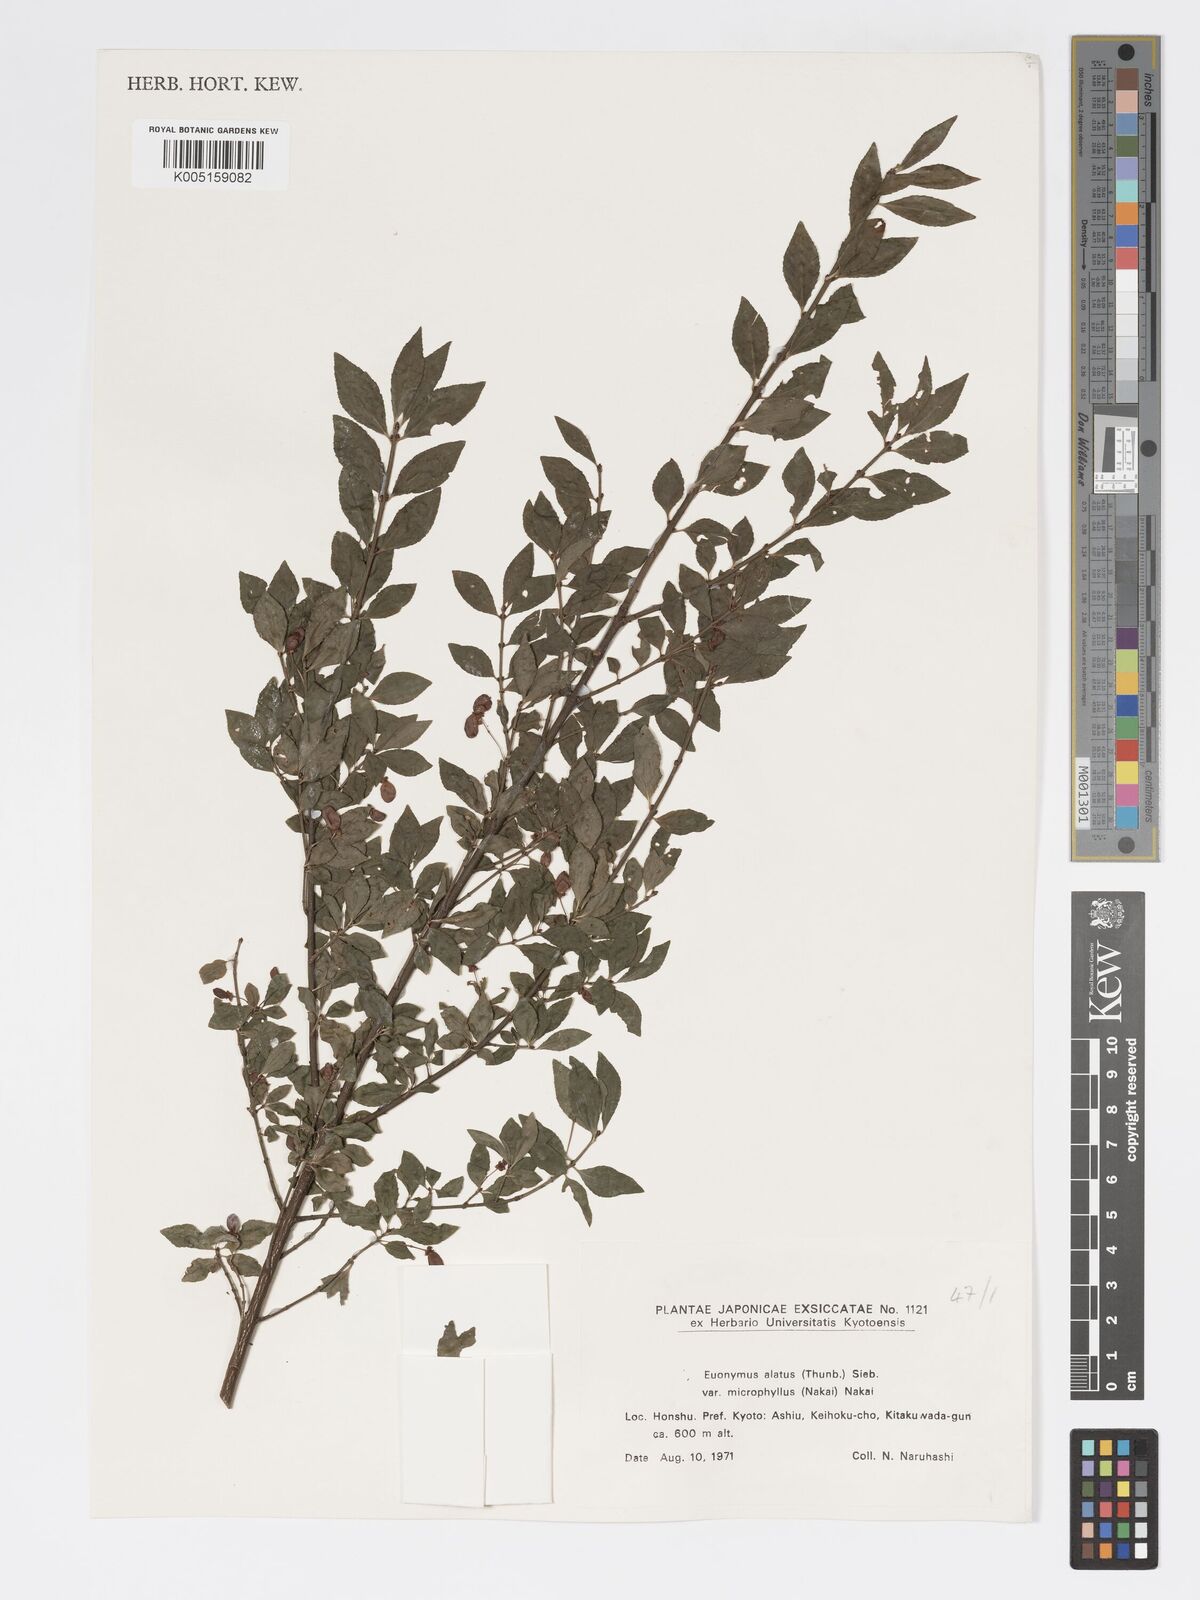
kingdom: Plantae
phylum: Tracheophyta
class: Magnoliopsida
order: Celastrales
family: Celastraceae
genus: Euonymus
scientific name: Euonymus
